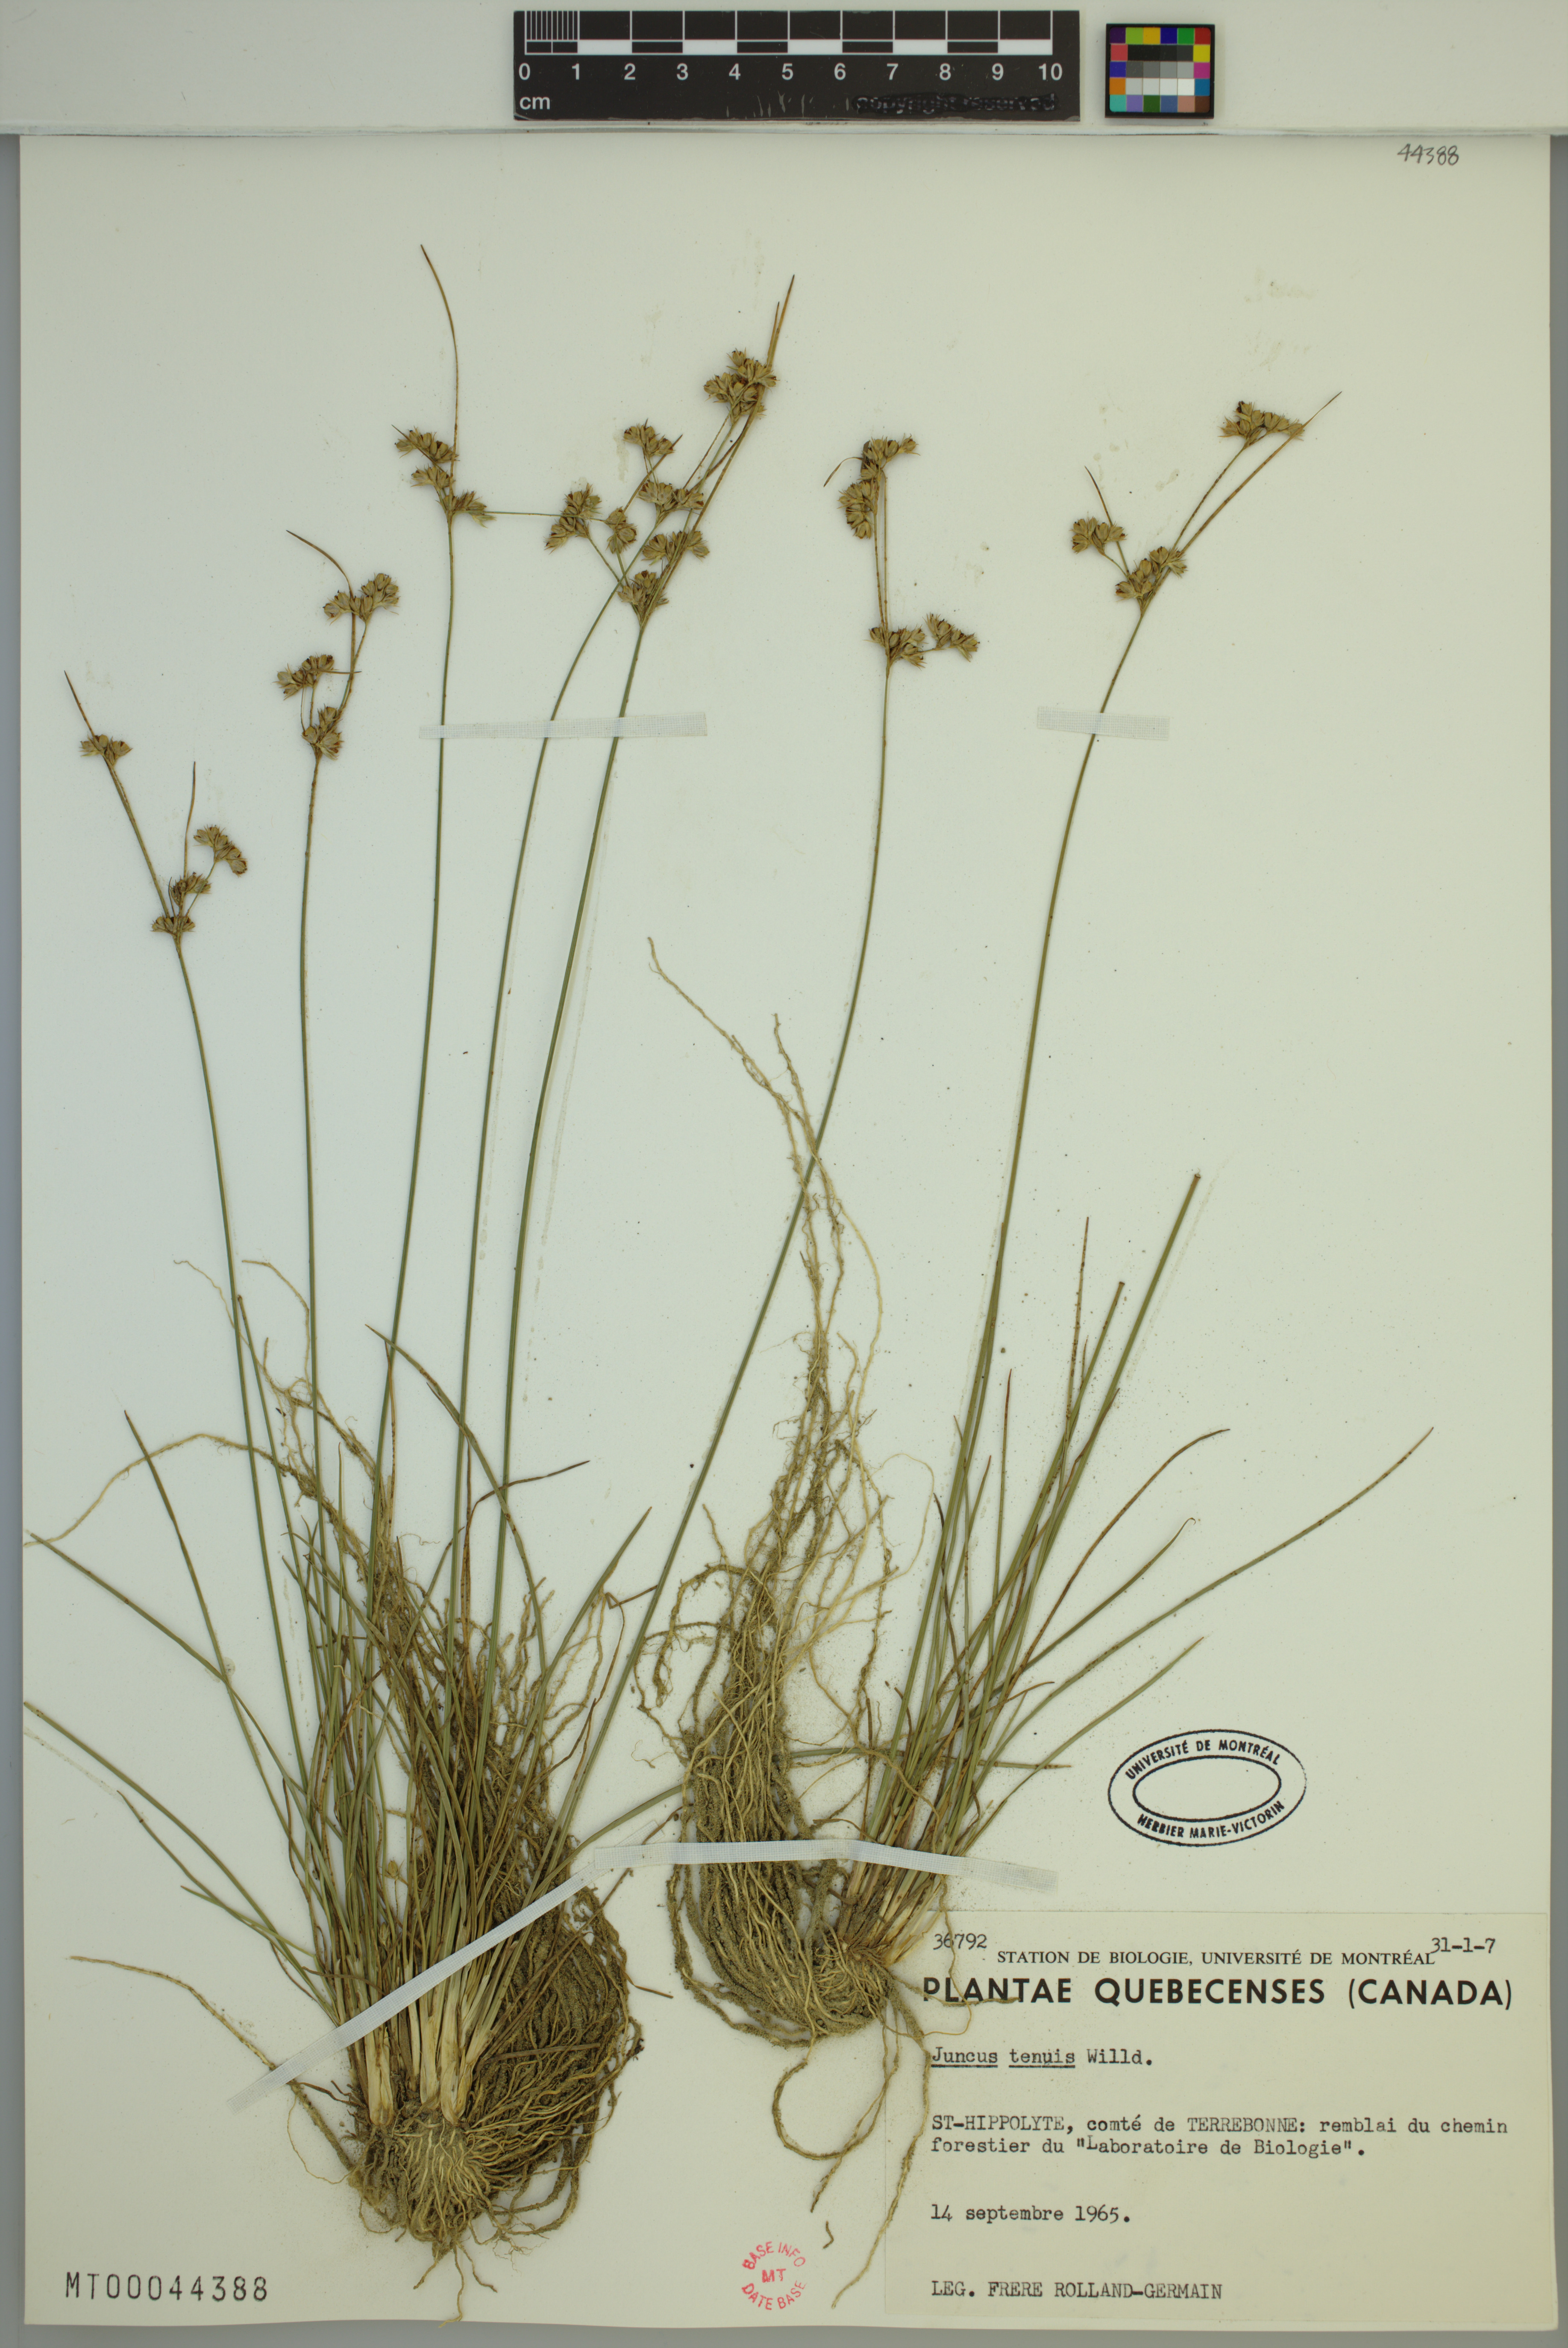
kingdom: Plantae
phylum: Tracheophyta
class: Liliopsida
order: Poales
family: Juncaceae
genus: Juncus
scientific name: Juncus tenuis
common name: Slender rush
